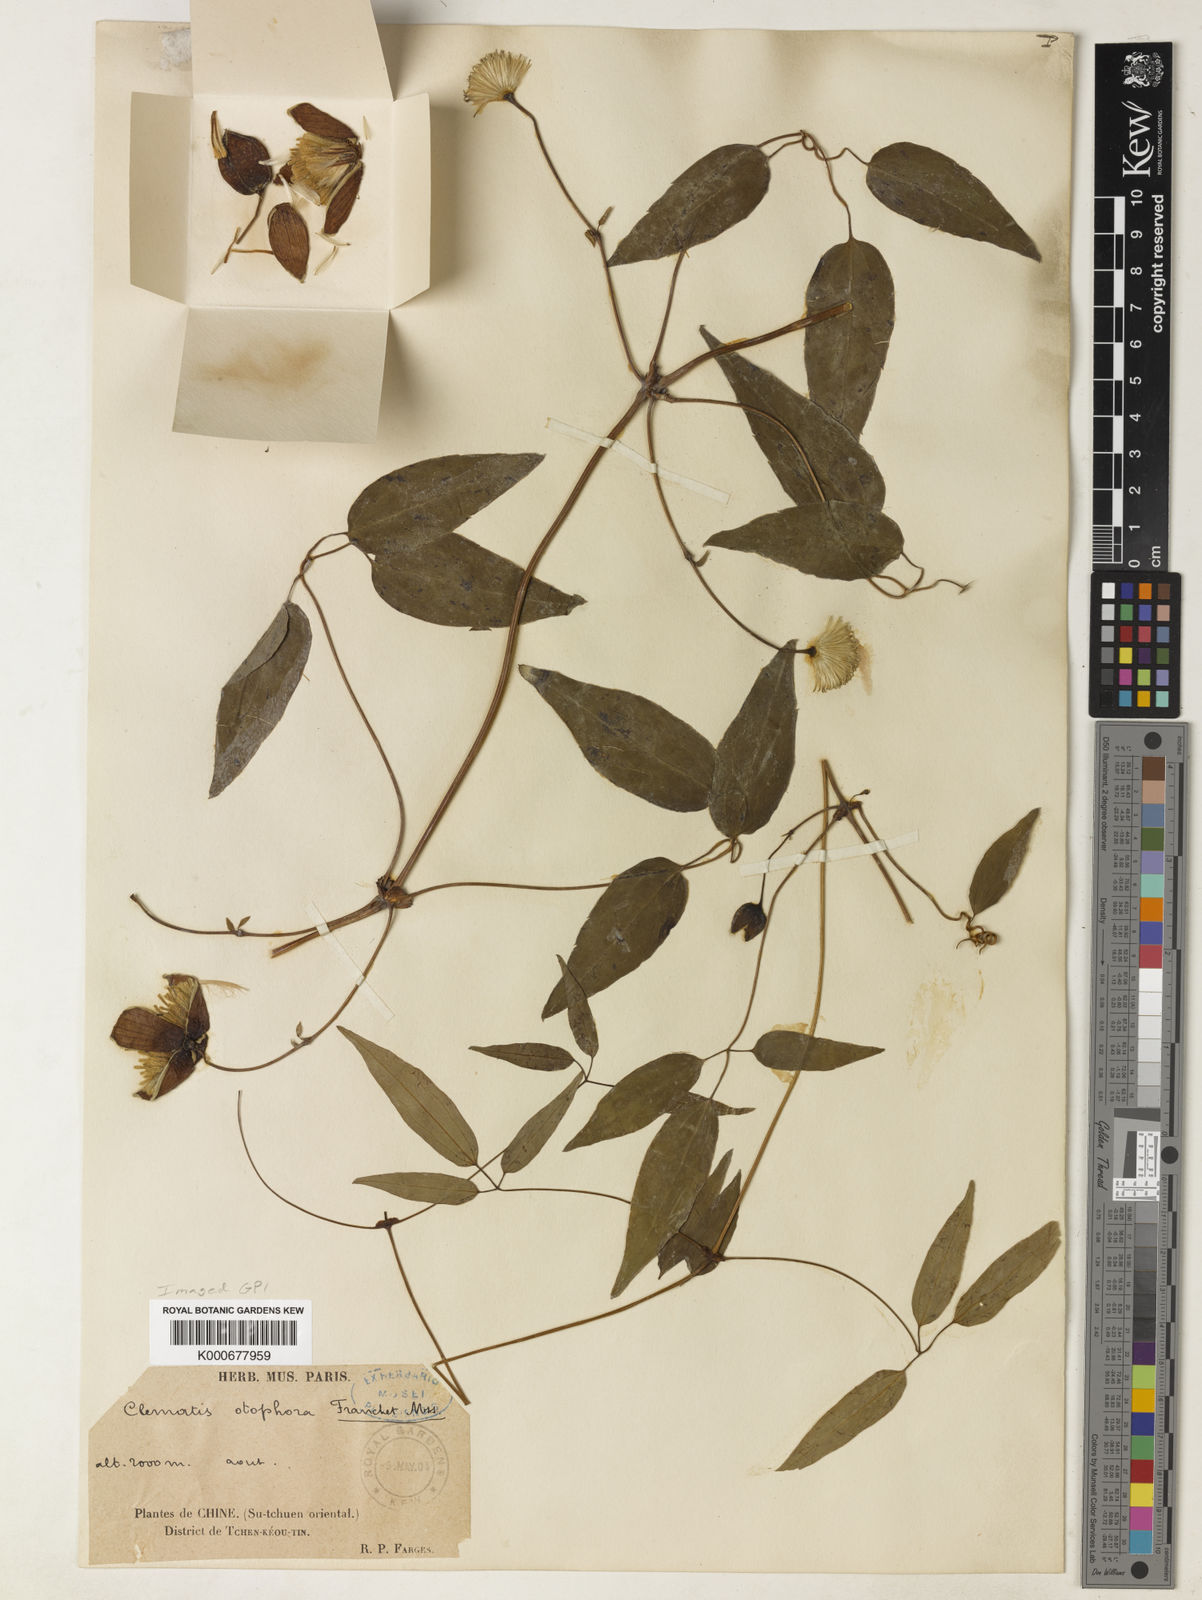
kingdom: Plantae
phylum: Tracheophyta
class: Magnoliopsida
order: Ranunculales
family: Ranunculaceae
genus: Clematis
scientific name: Clematis otophora
